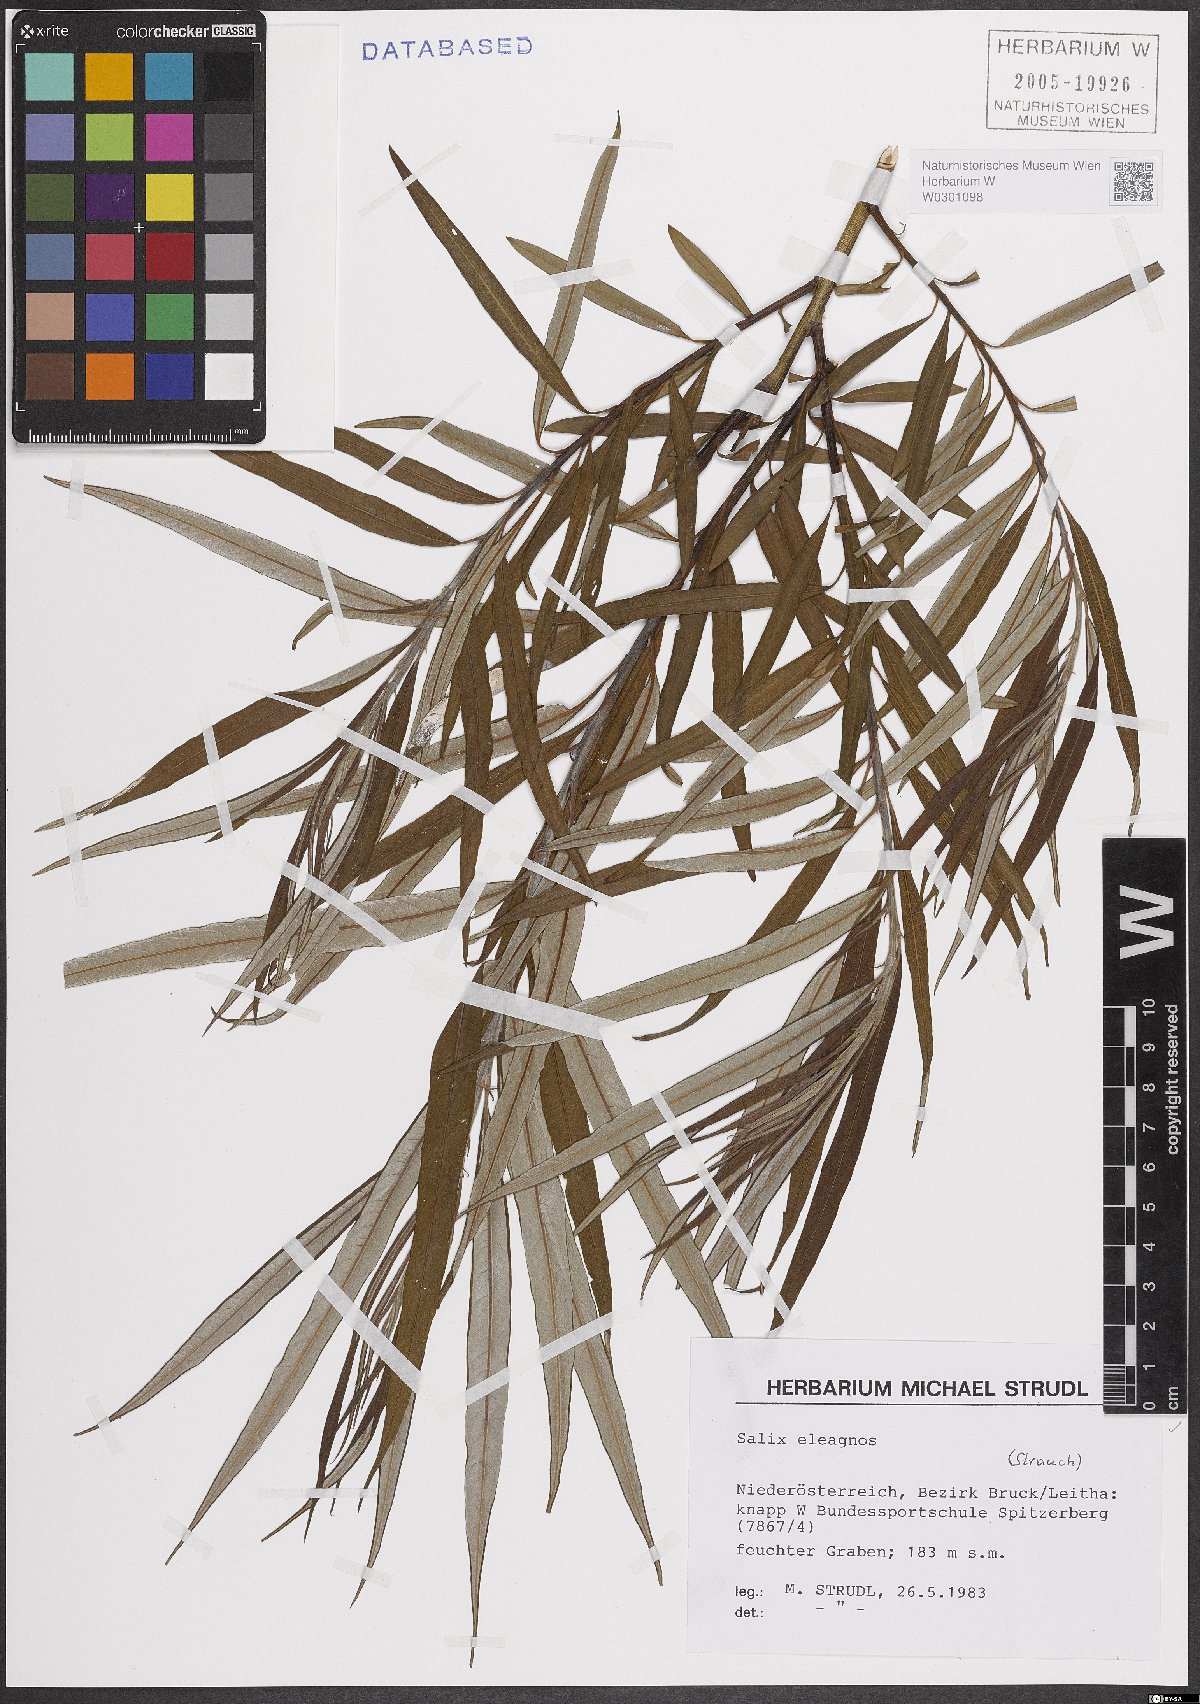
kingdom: Plantae
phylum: Tracheophyta
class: Magnoliopsida
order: Malpighiales
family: Salicaceae
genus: Salix
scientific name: Salix eleagnos
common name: Elaeagnus willow
